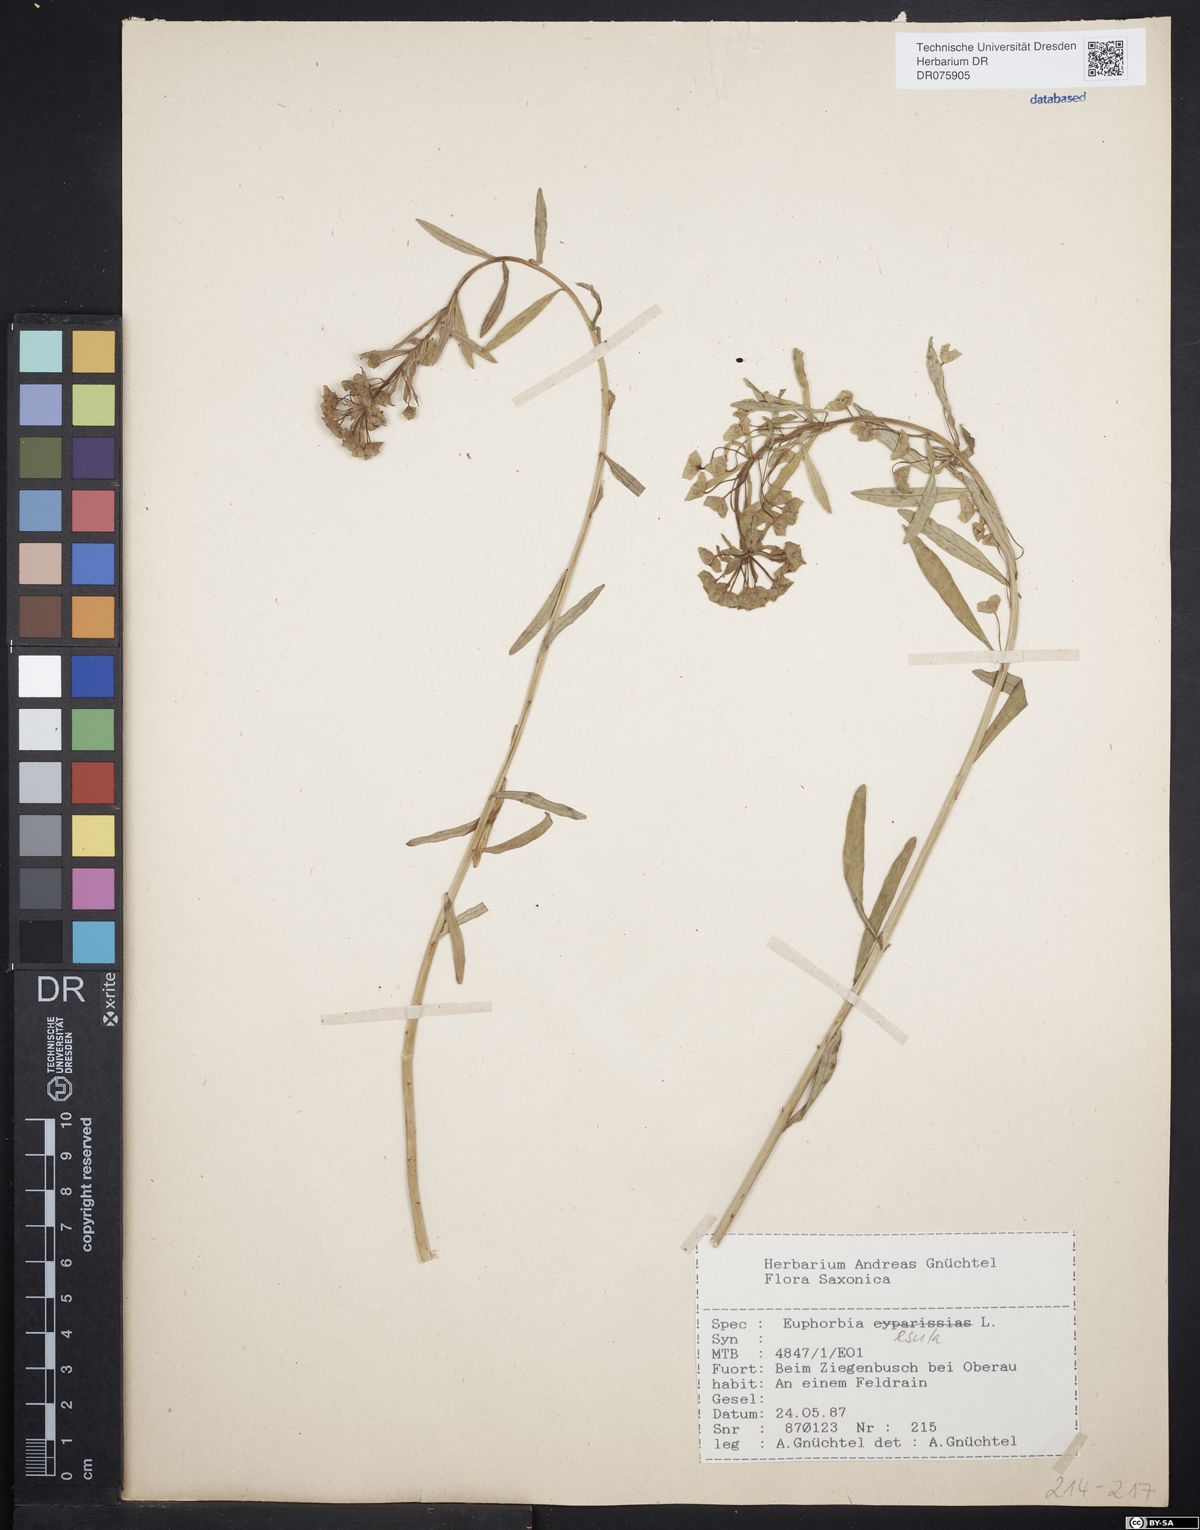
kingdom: Plantae
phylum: Tracheophyta
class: Magnoliopsida
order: Malpighiales
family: Euphorbiaceae
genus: Euphorbia
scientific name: Euphorbia esula
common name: Leafy spurge
